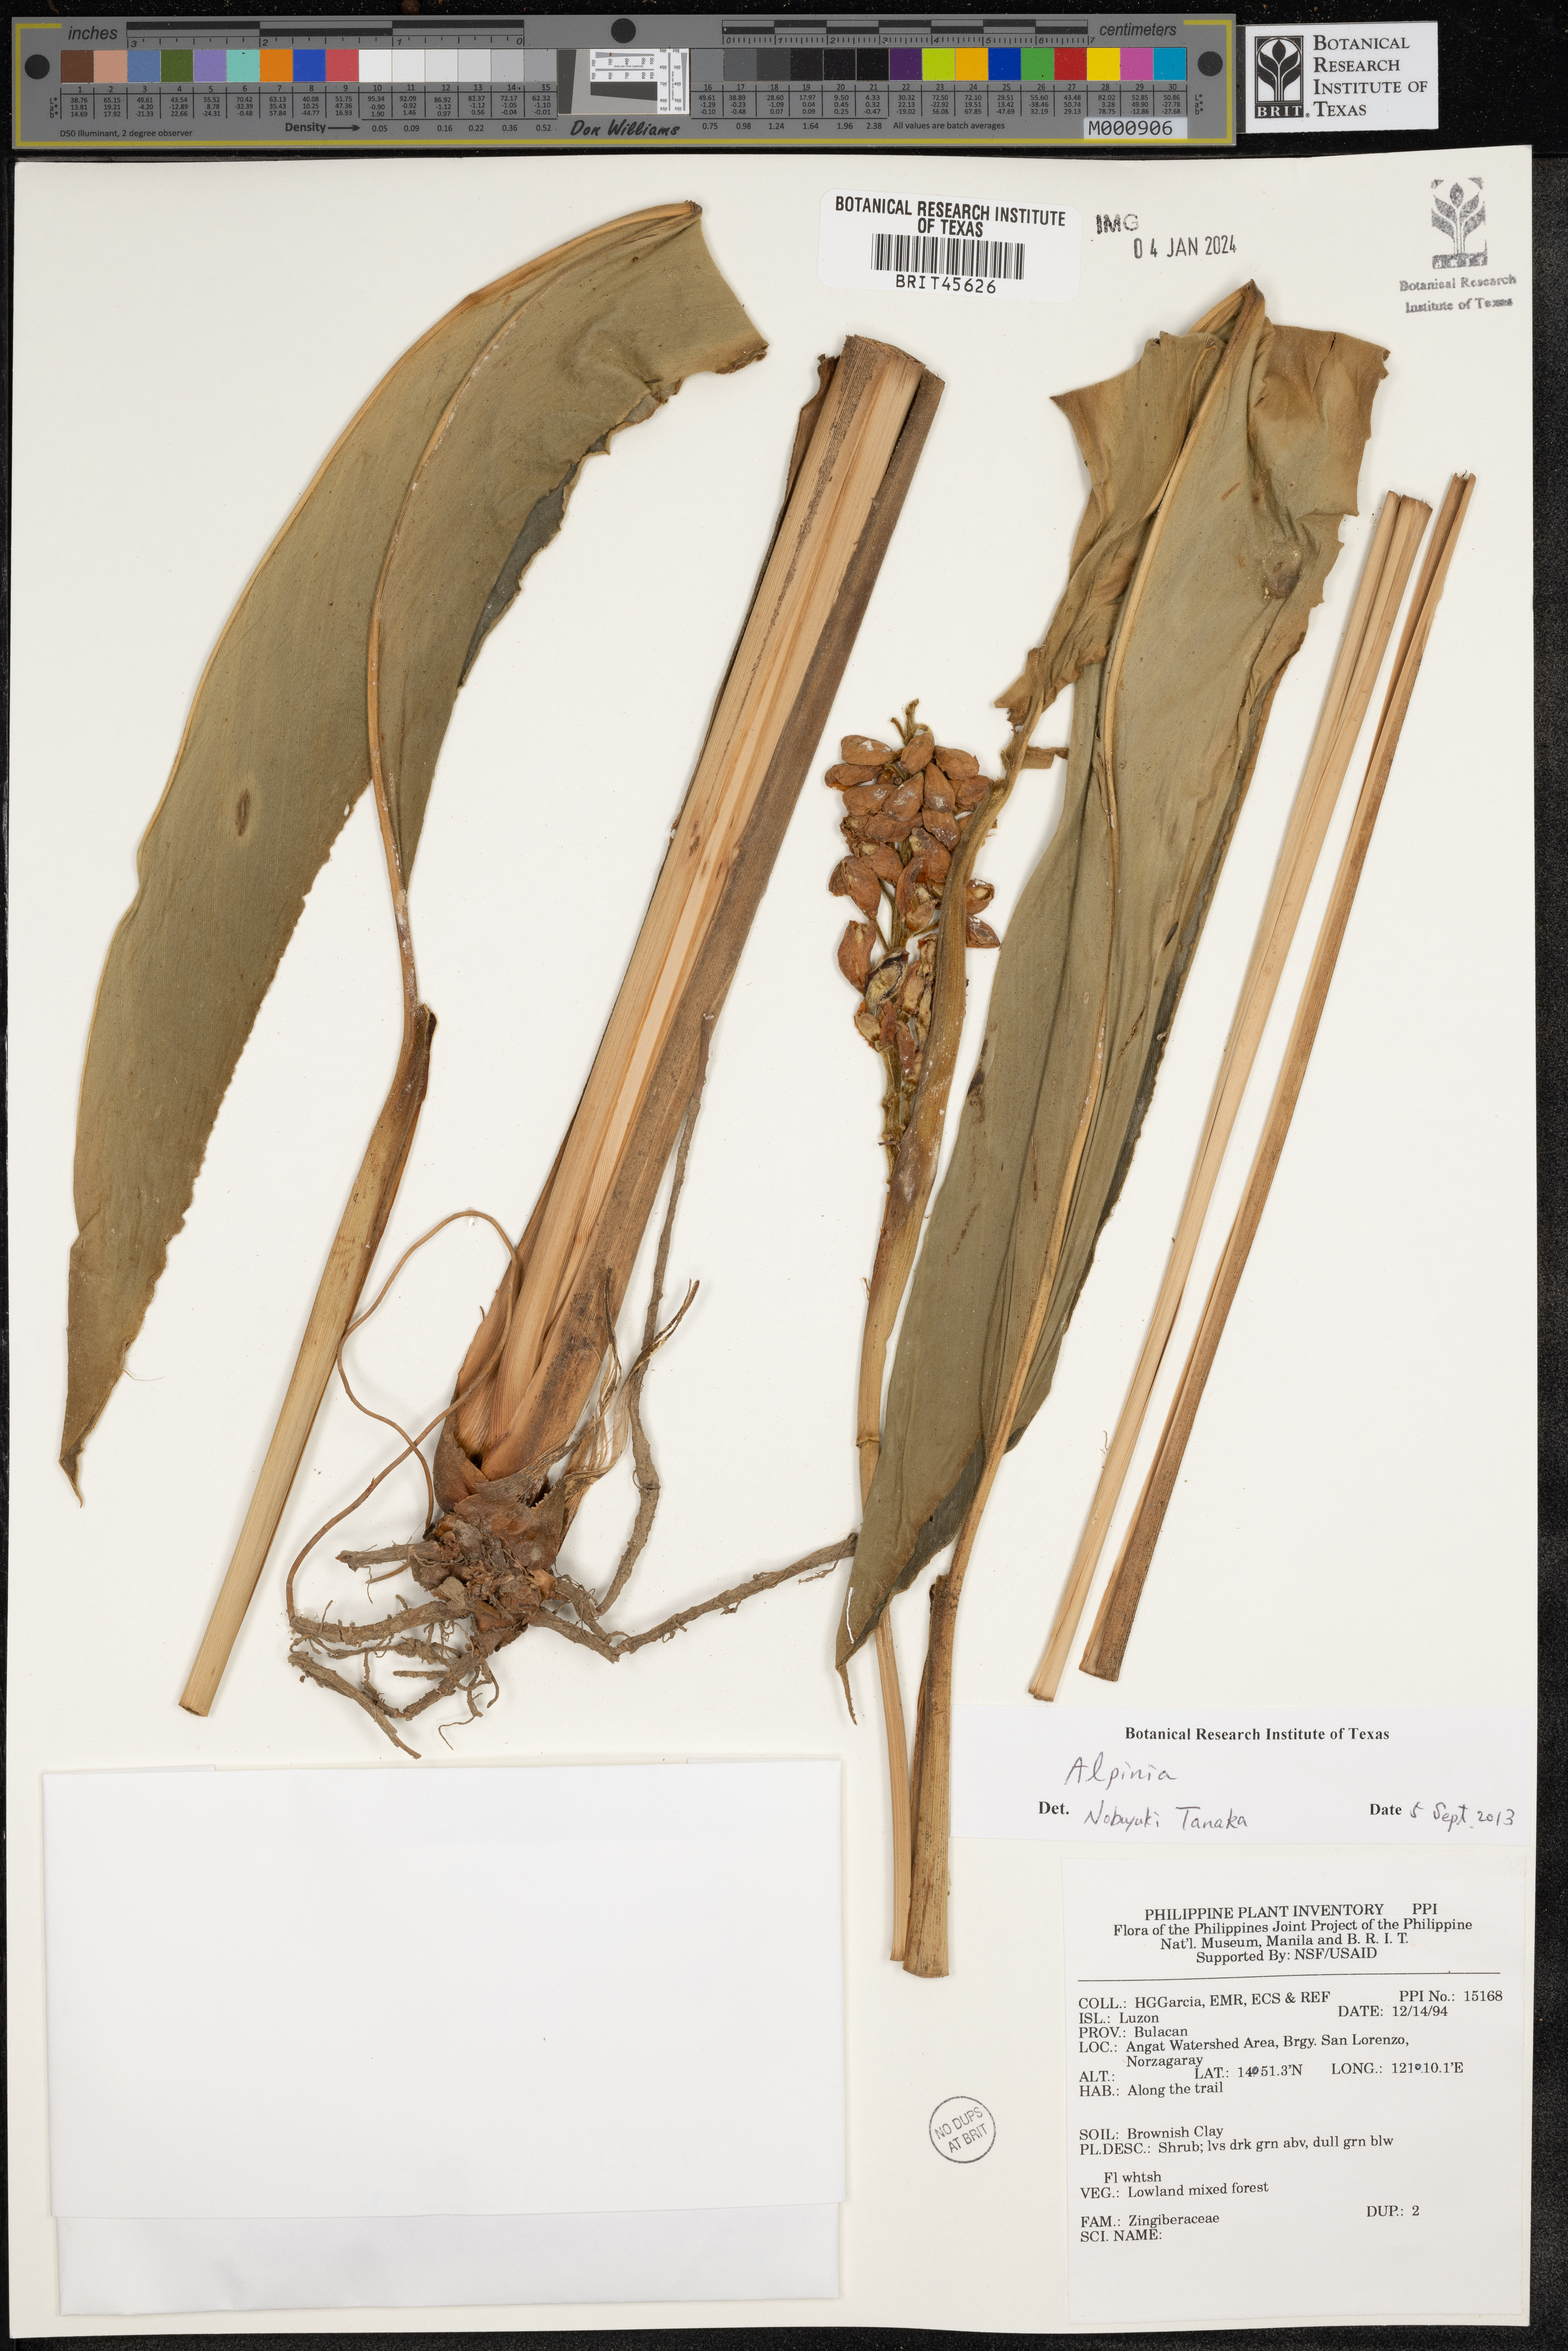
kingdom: Plantae
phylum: Tracheophyta
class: Liliopsida
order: Zingiberales
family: Zingiberaceae
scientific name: Zingiberaceae
